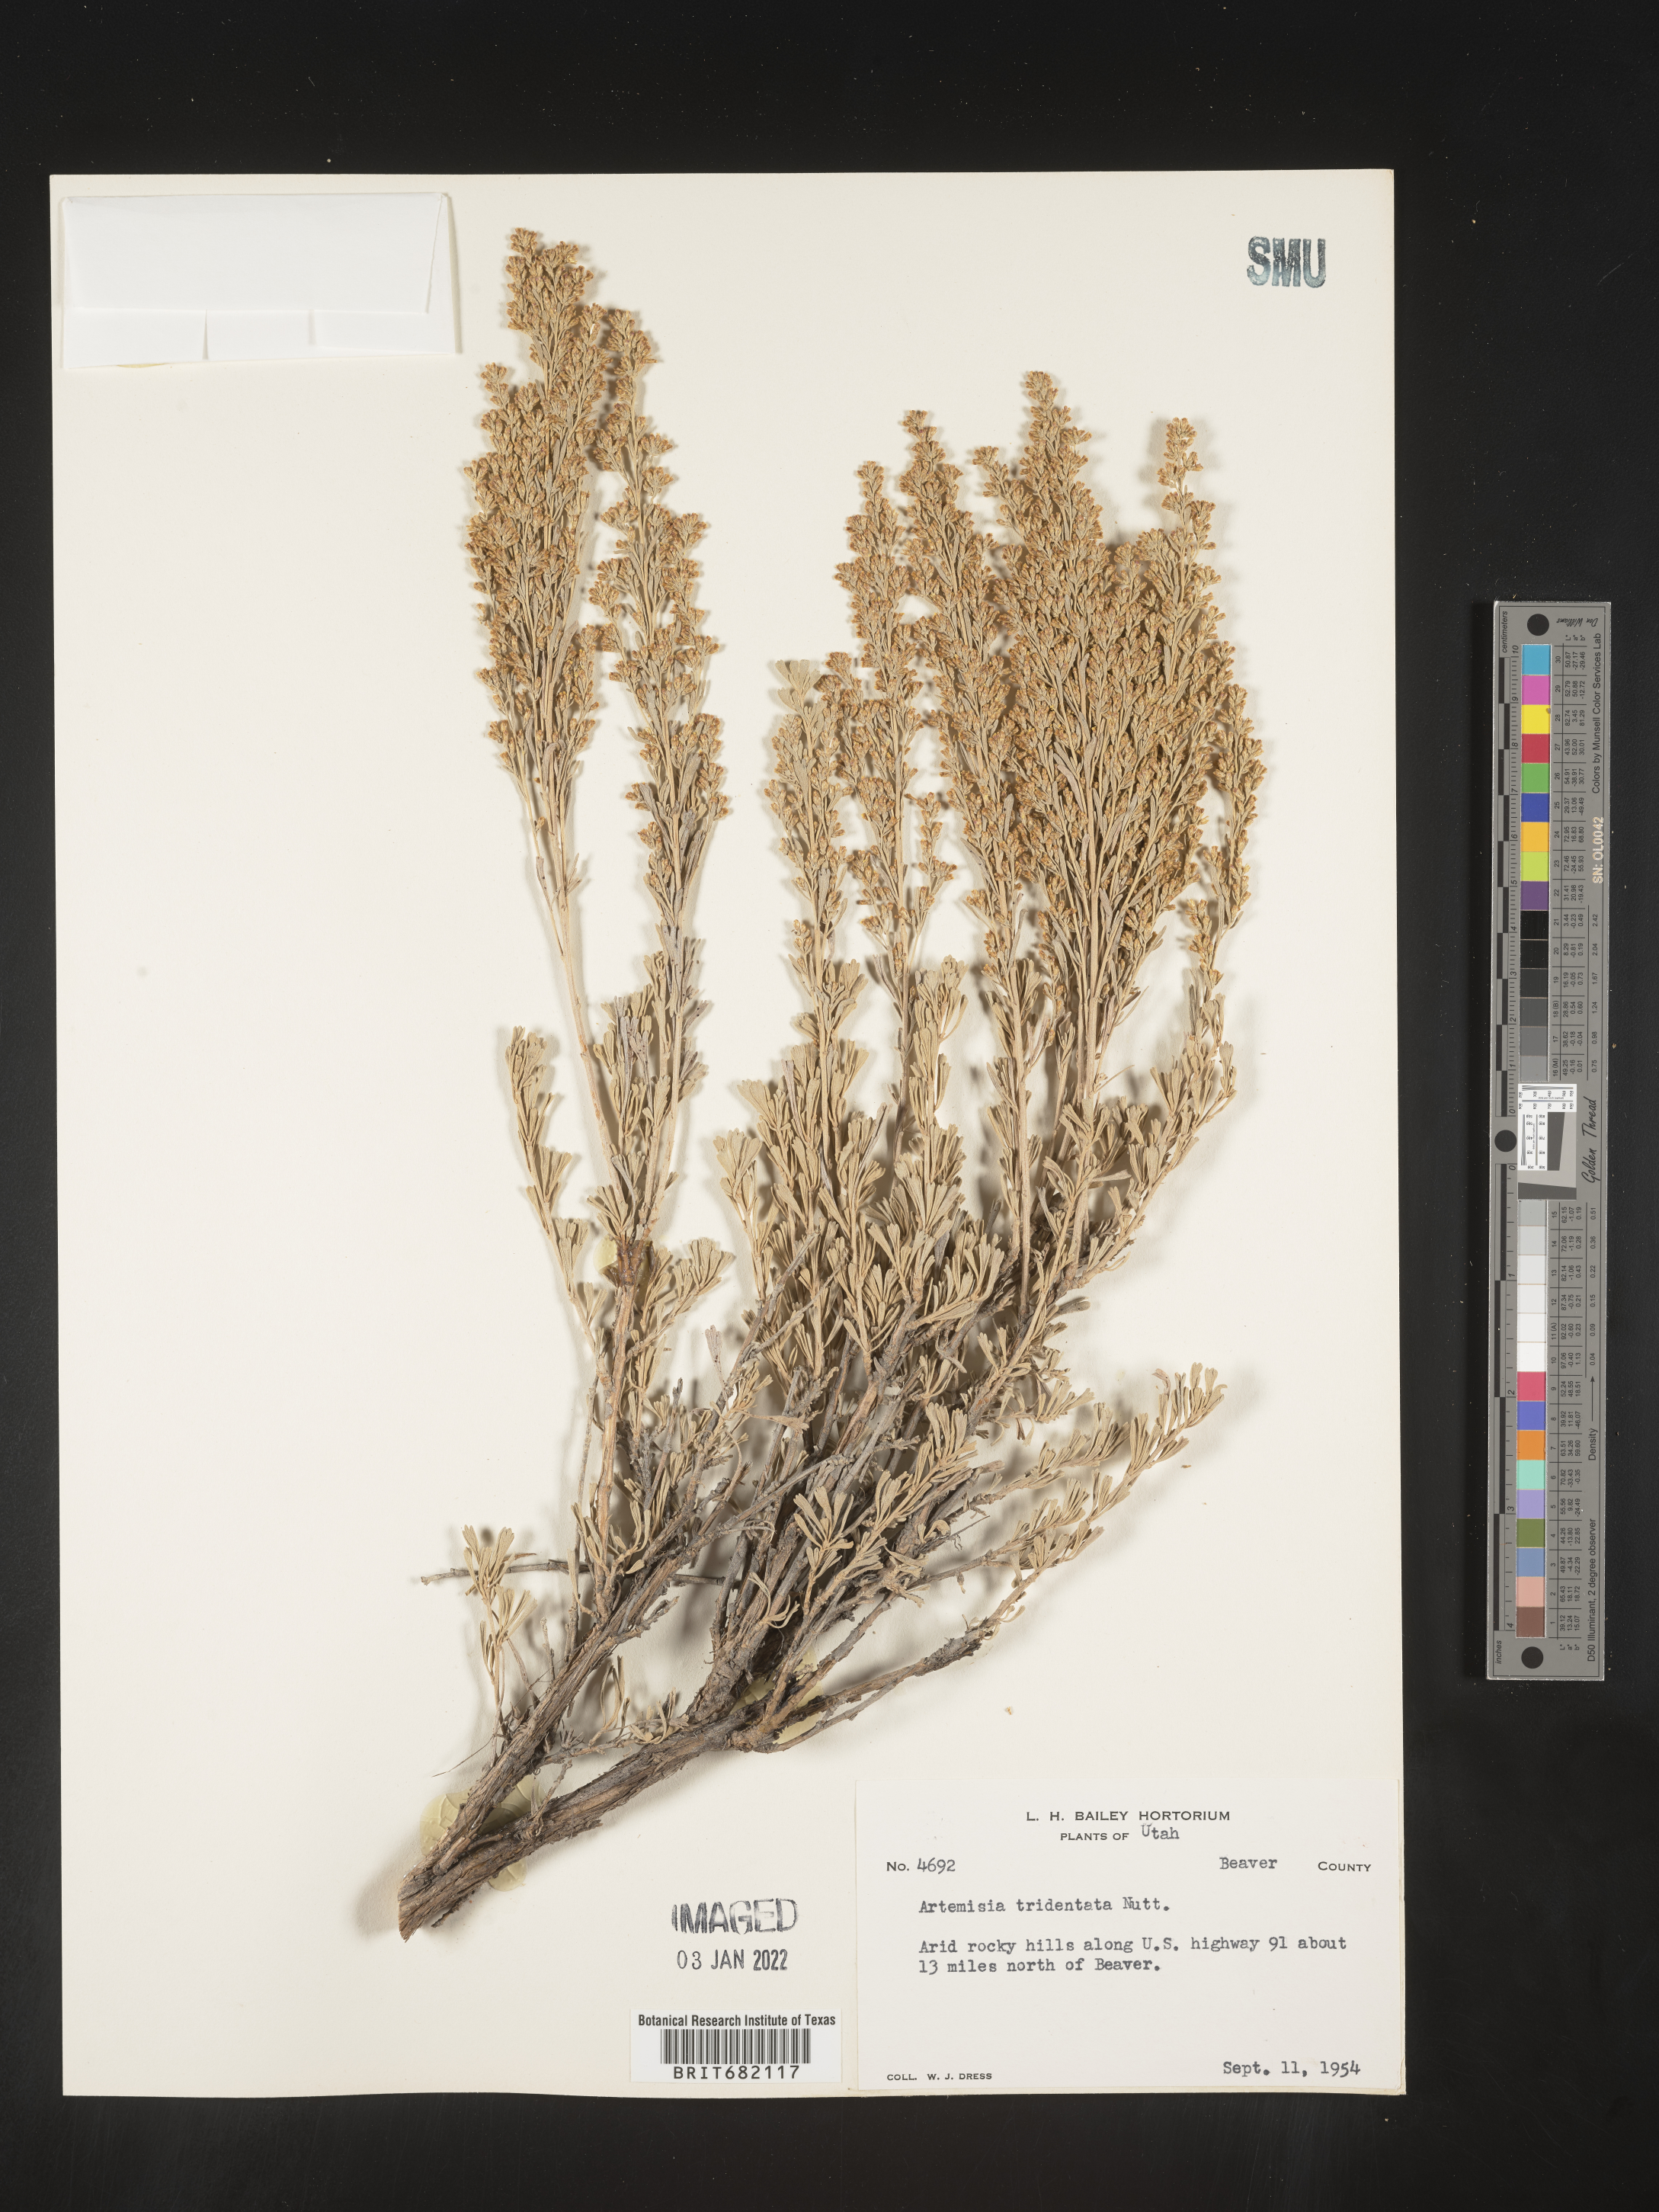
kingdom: Plantae
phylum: Tracheophyta
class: Magnoliopsida
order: Asterales
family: Asteraceae
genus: Artemisia
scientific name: Artemisia tridentata
